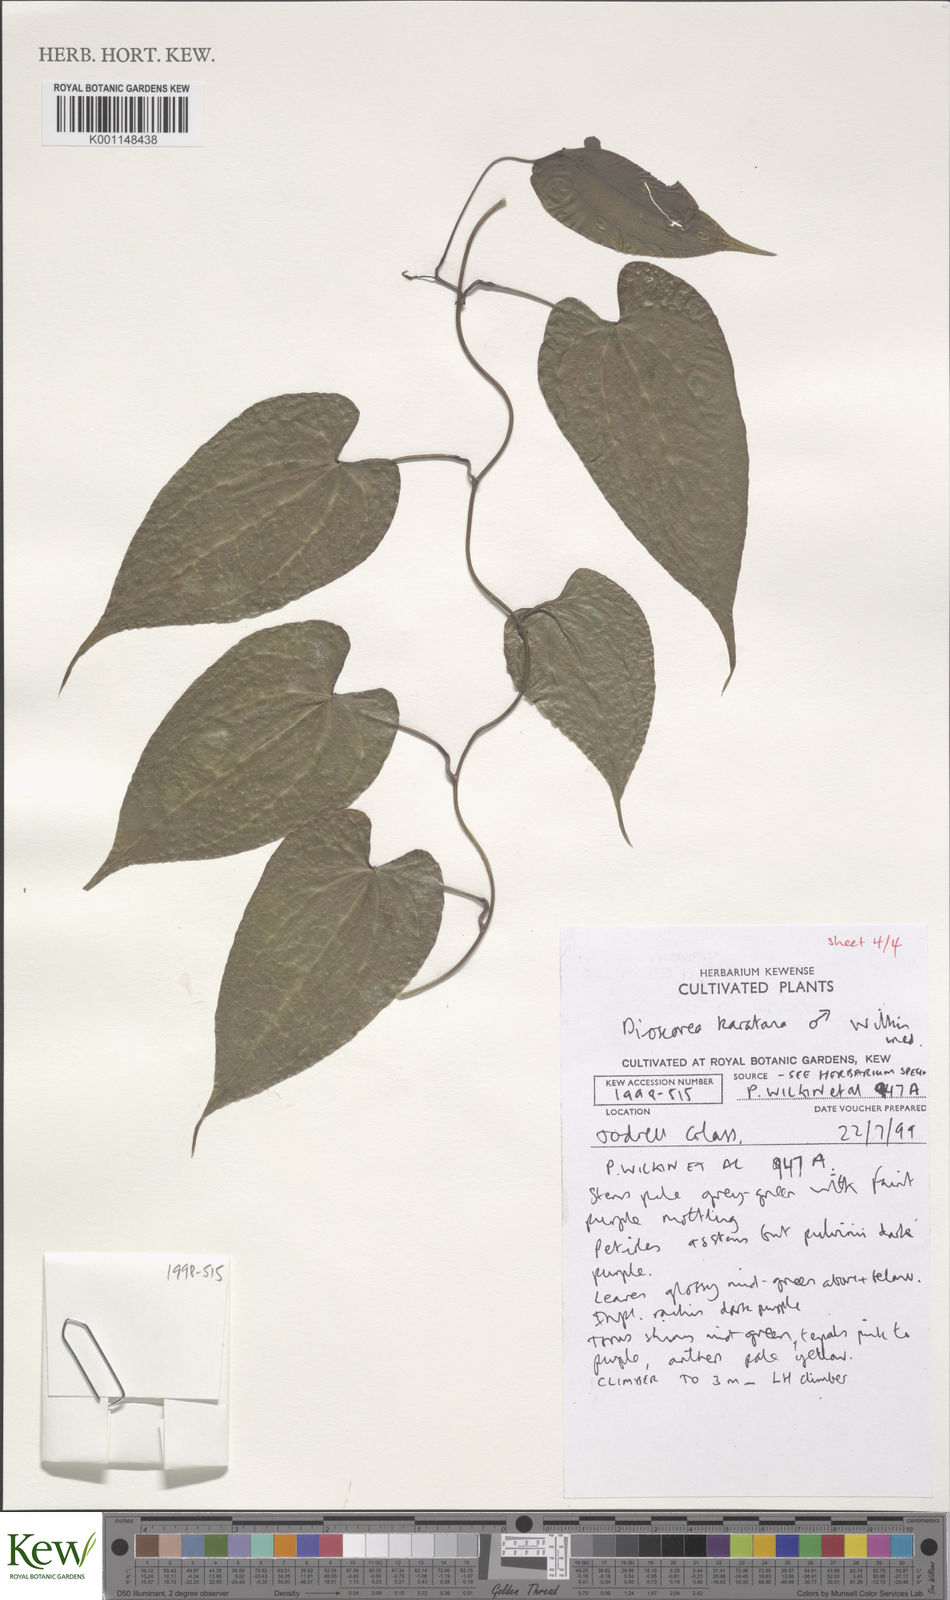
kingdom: Plantae
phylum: Tracheophyta
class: Liliopsida
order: Dioscoreales
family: Dioscoreaceae
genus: Dioscorea
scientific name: Dioscorea madecassa
